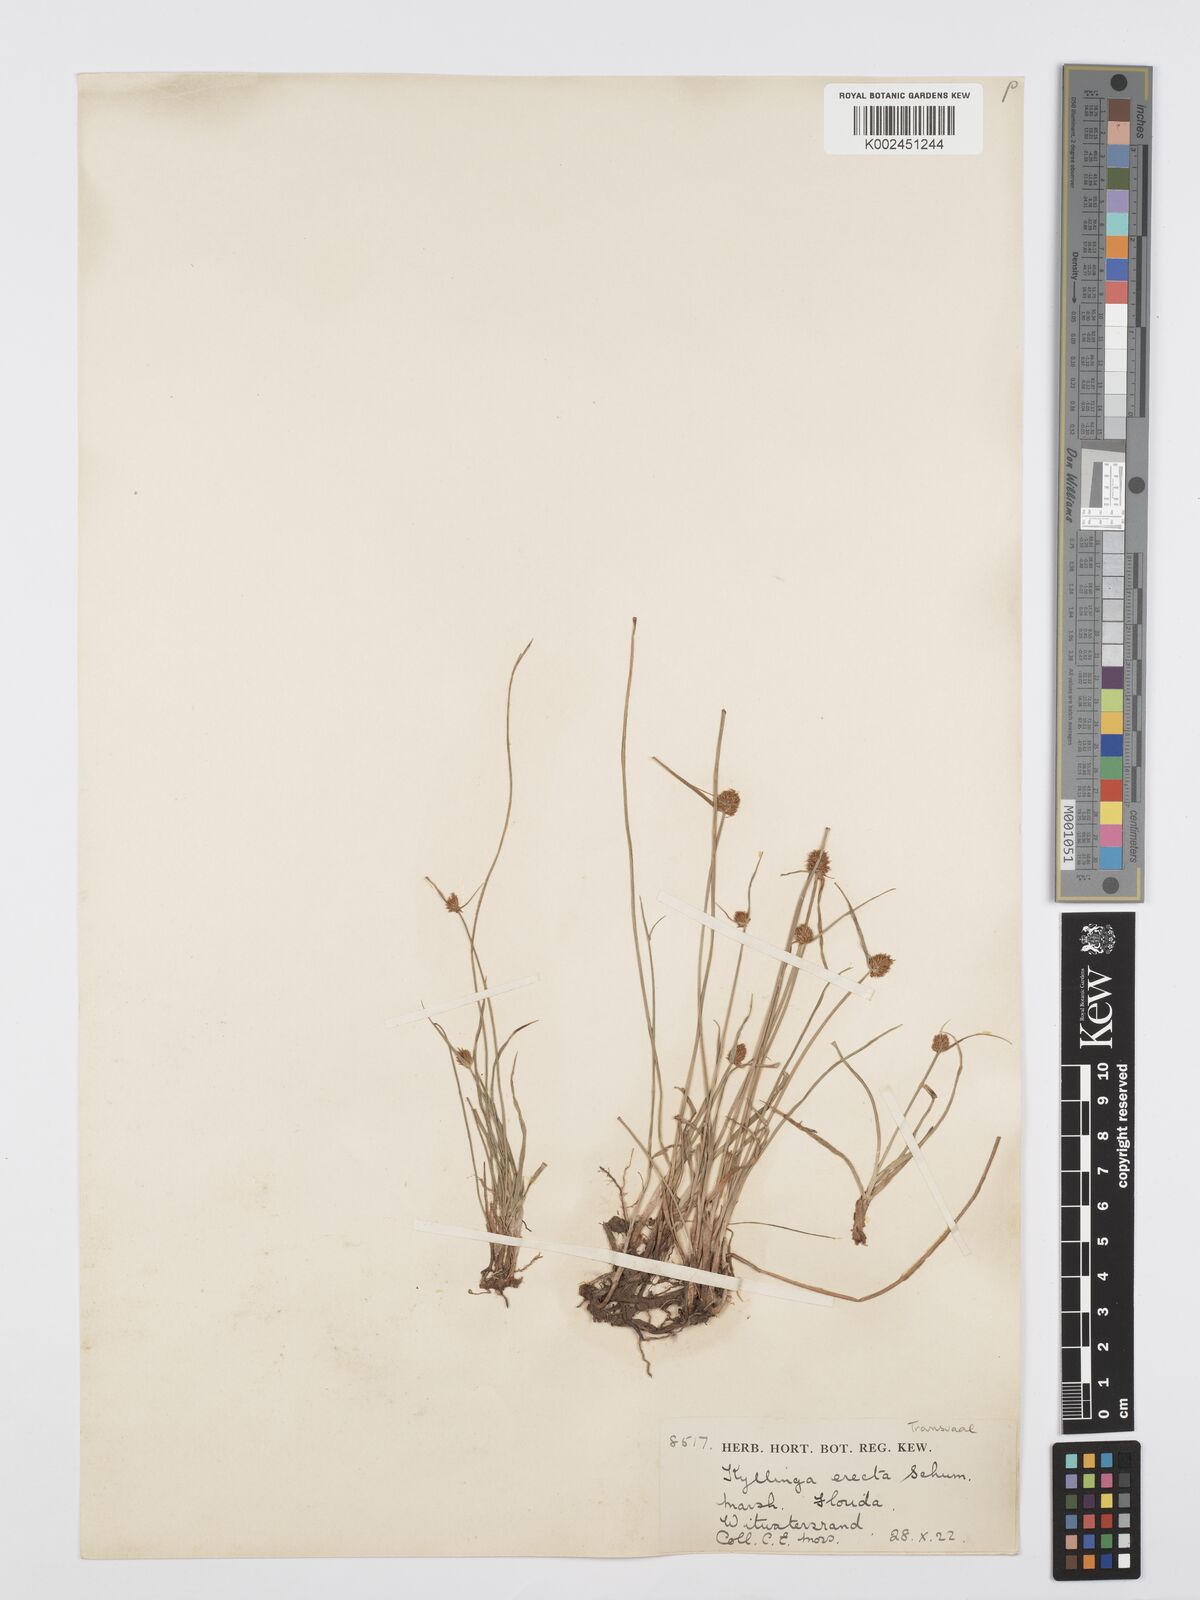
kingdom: Plantae
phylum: Tracheophyta
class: Liliopsida
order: Poales
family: Cyperaceae
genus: Cyperus
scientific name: Cyperus erectus
